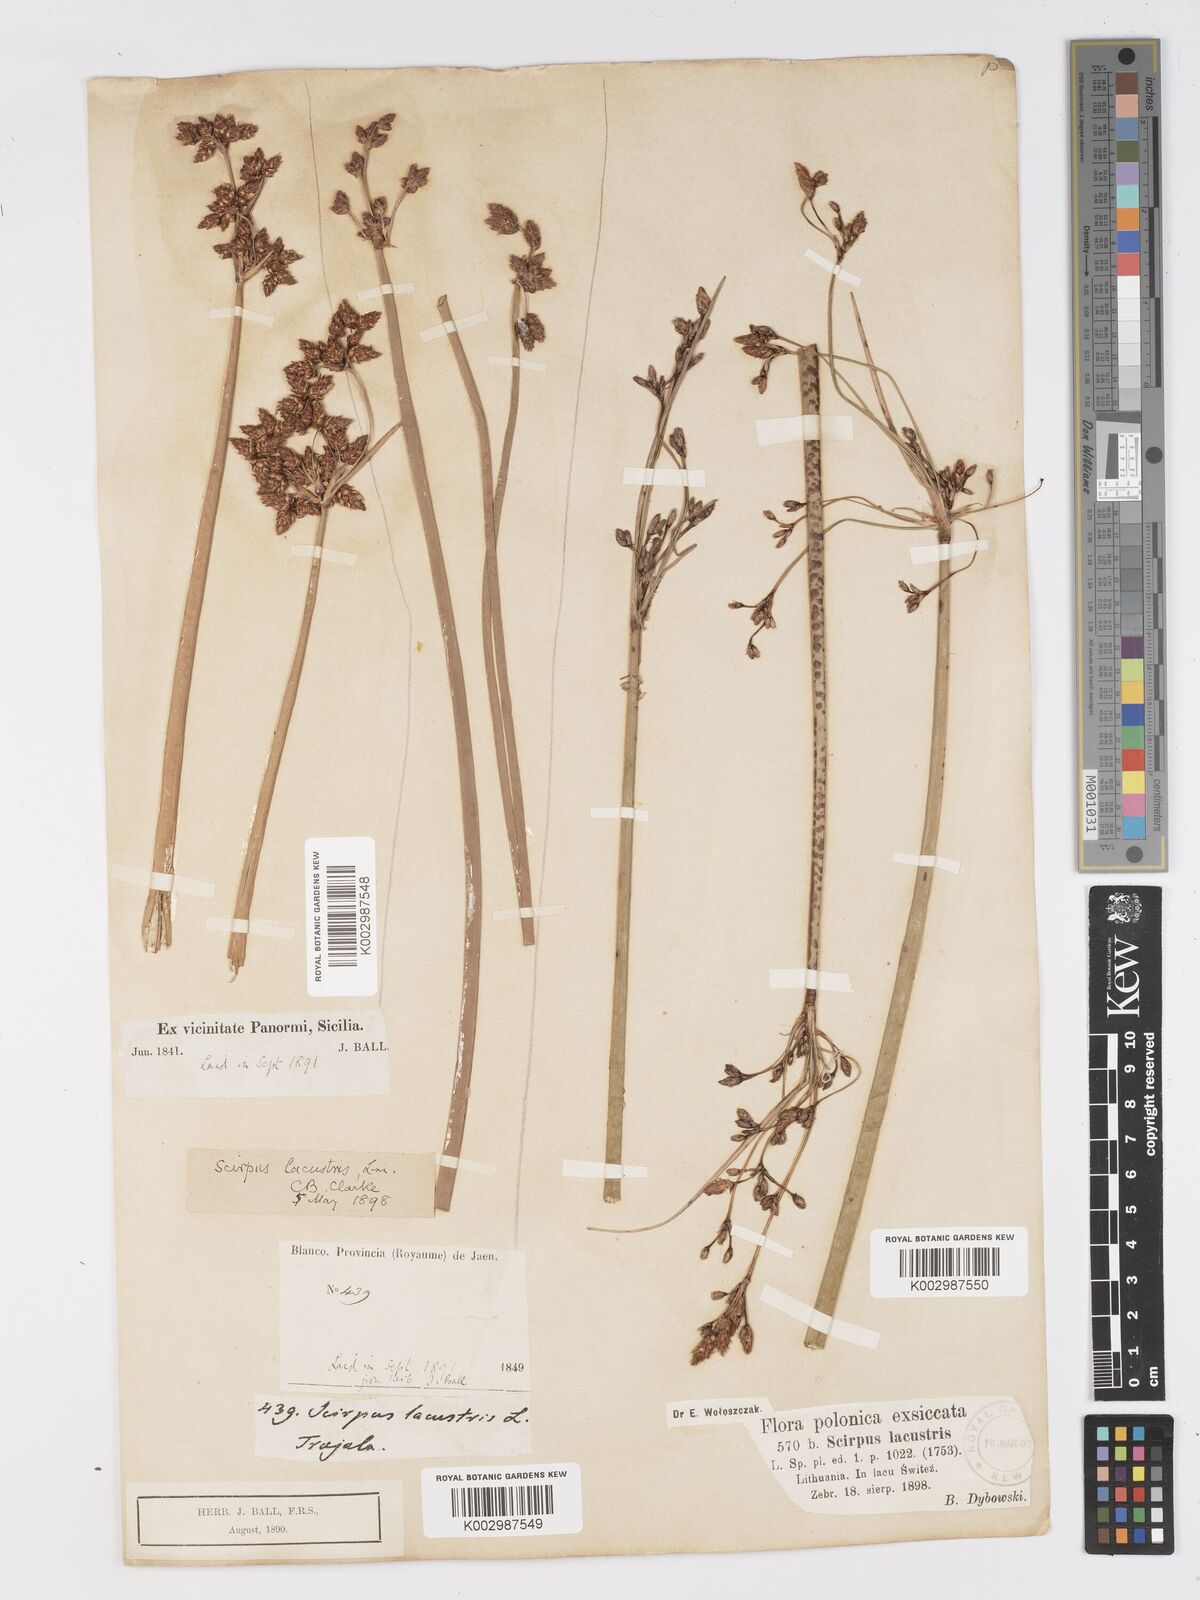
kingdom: Plantae
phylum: Tracheophyta
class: Liliopsida
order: Poales
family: Cyperaceae
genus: Schoenoplectus
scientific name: Schoenoplectus lacustris
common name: Common club-rush
